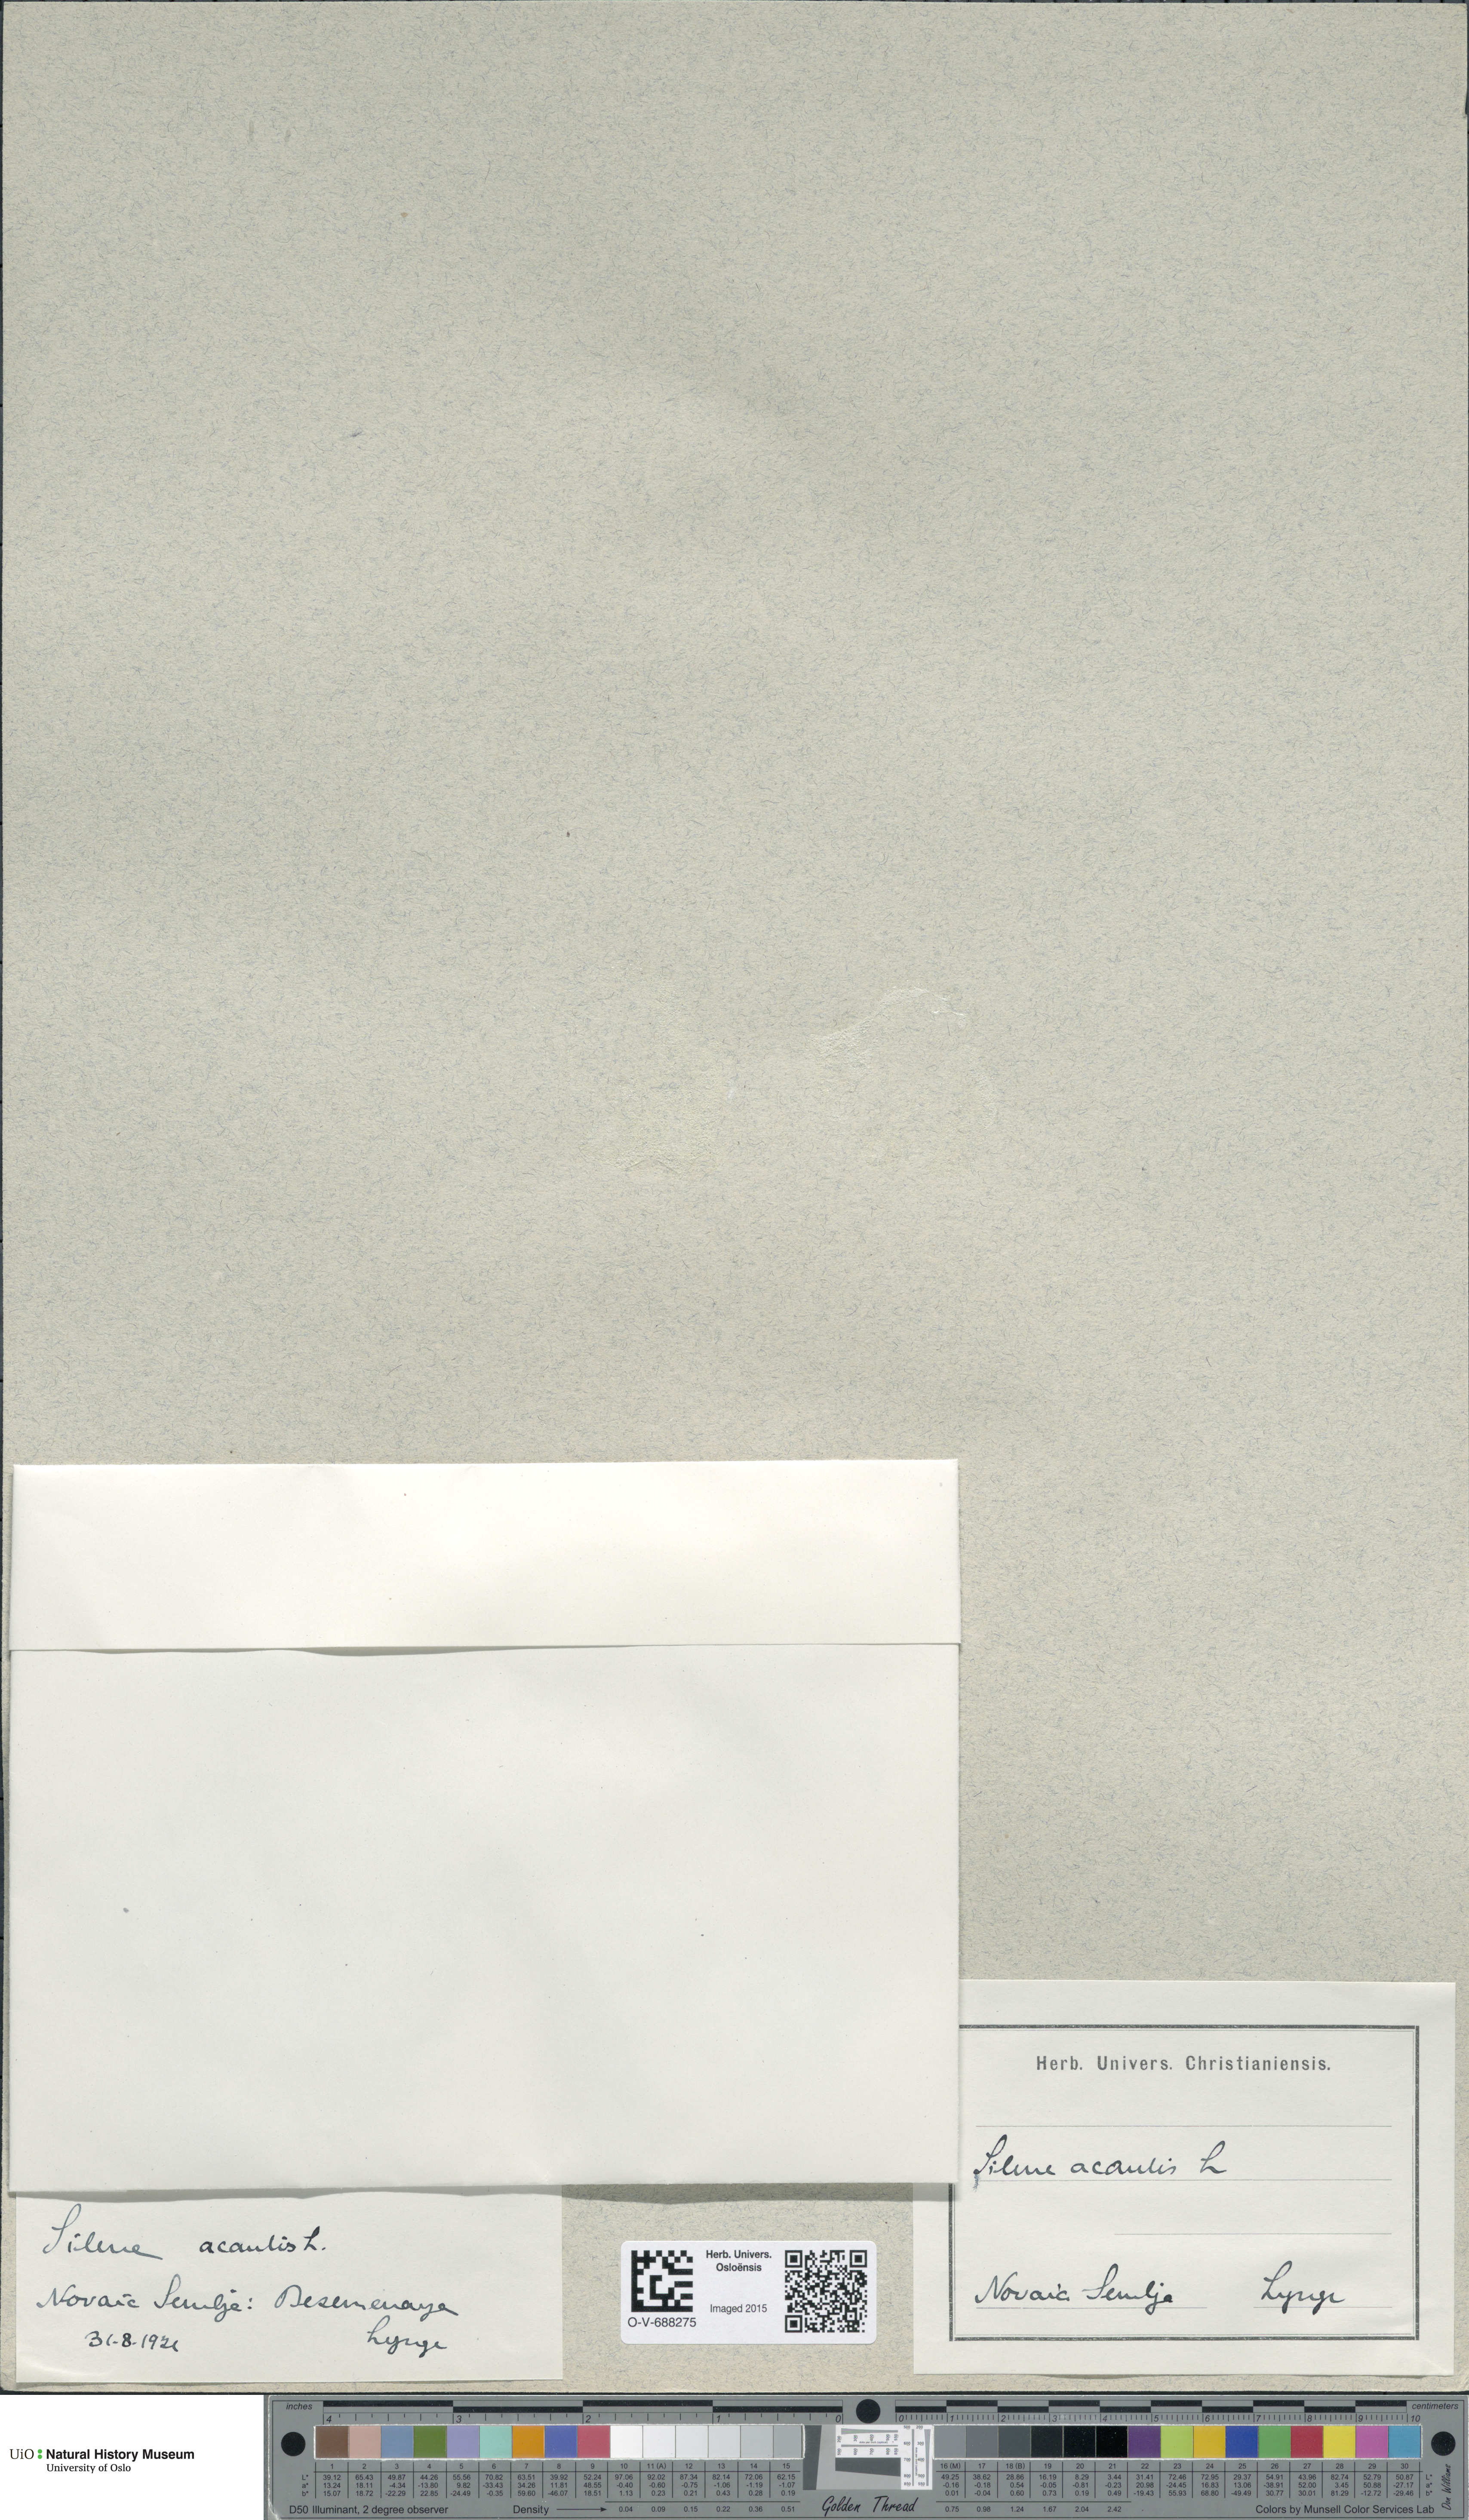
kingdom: Plantae
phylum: Tracheophyta
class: Magnoliopsida
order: Caryophyllales
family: Caryophyllaceae
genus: Silene
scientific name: Silene acaulis
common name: Moss campion
